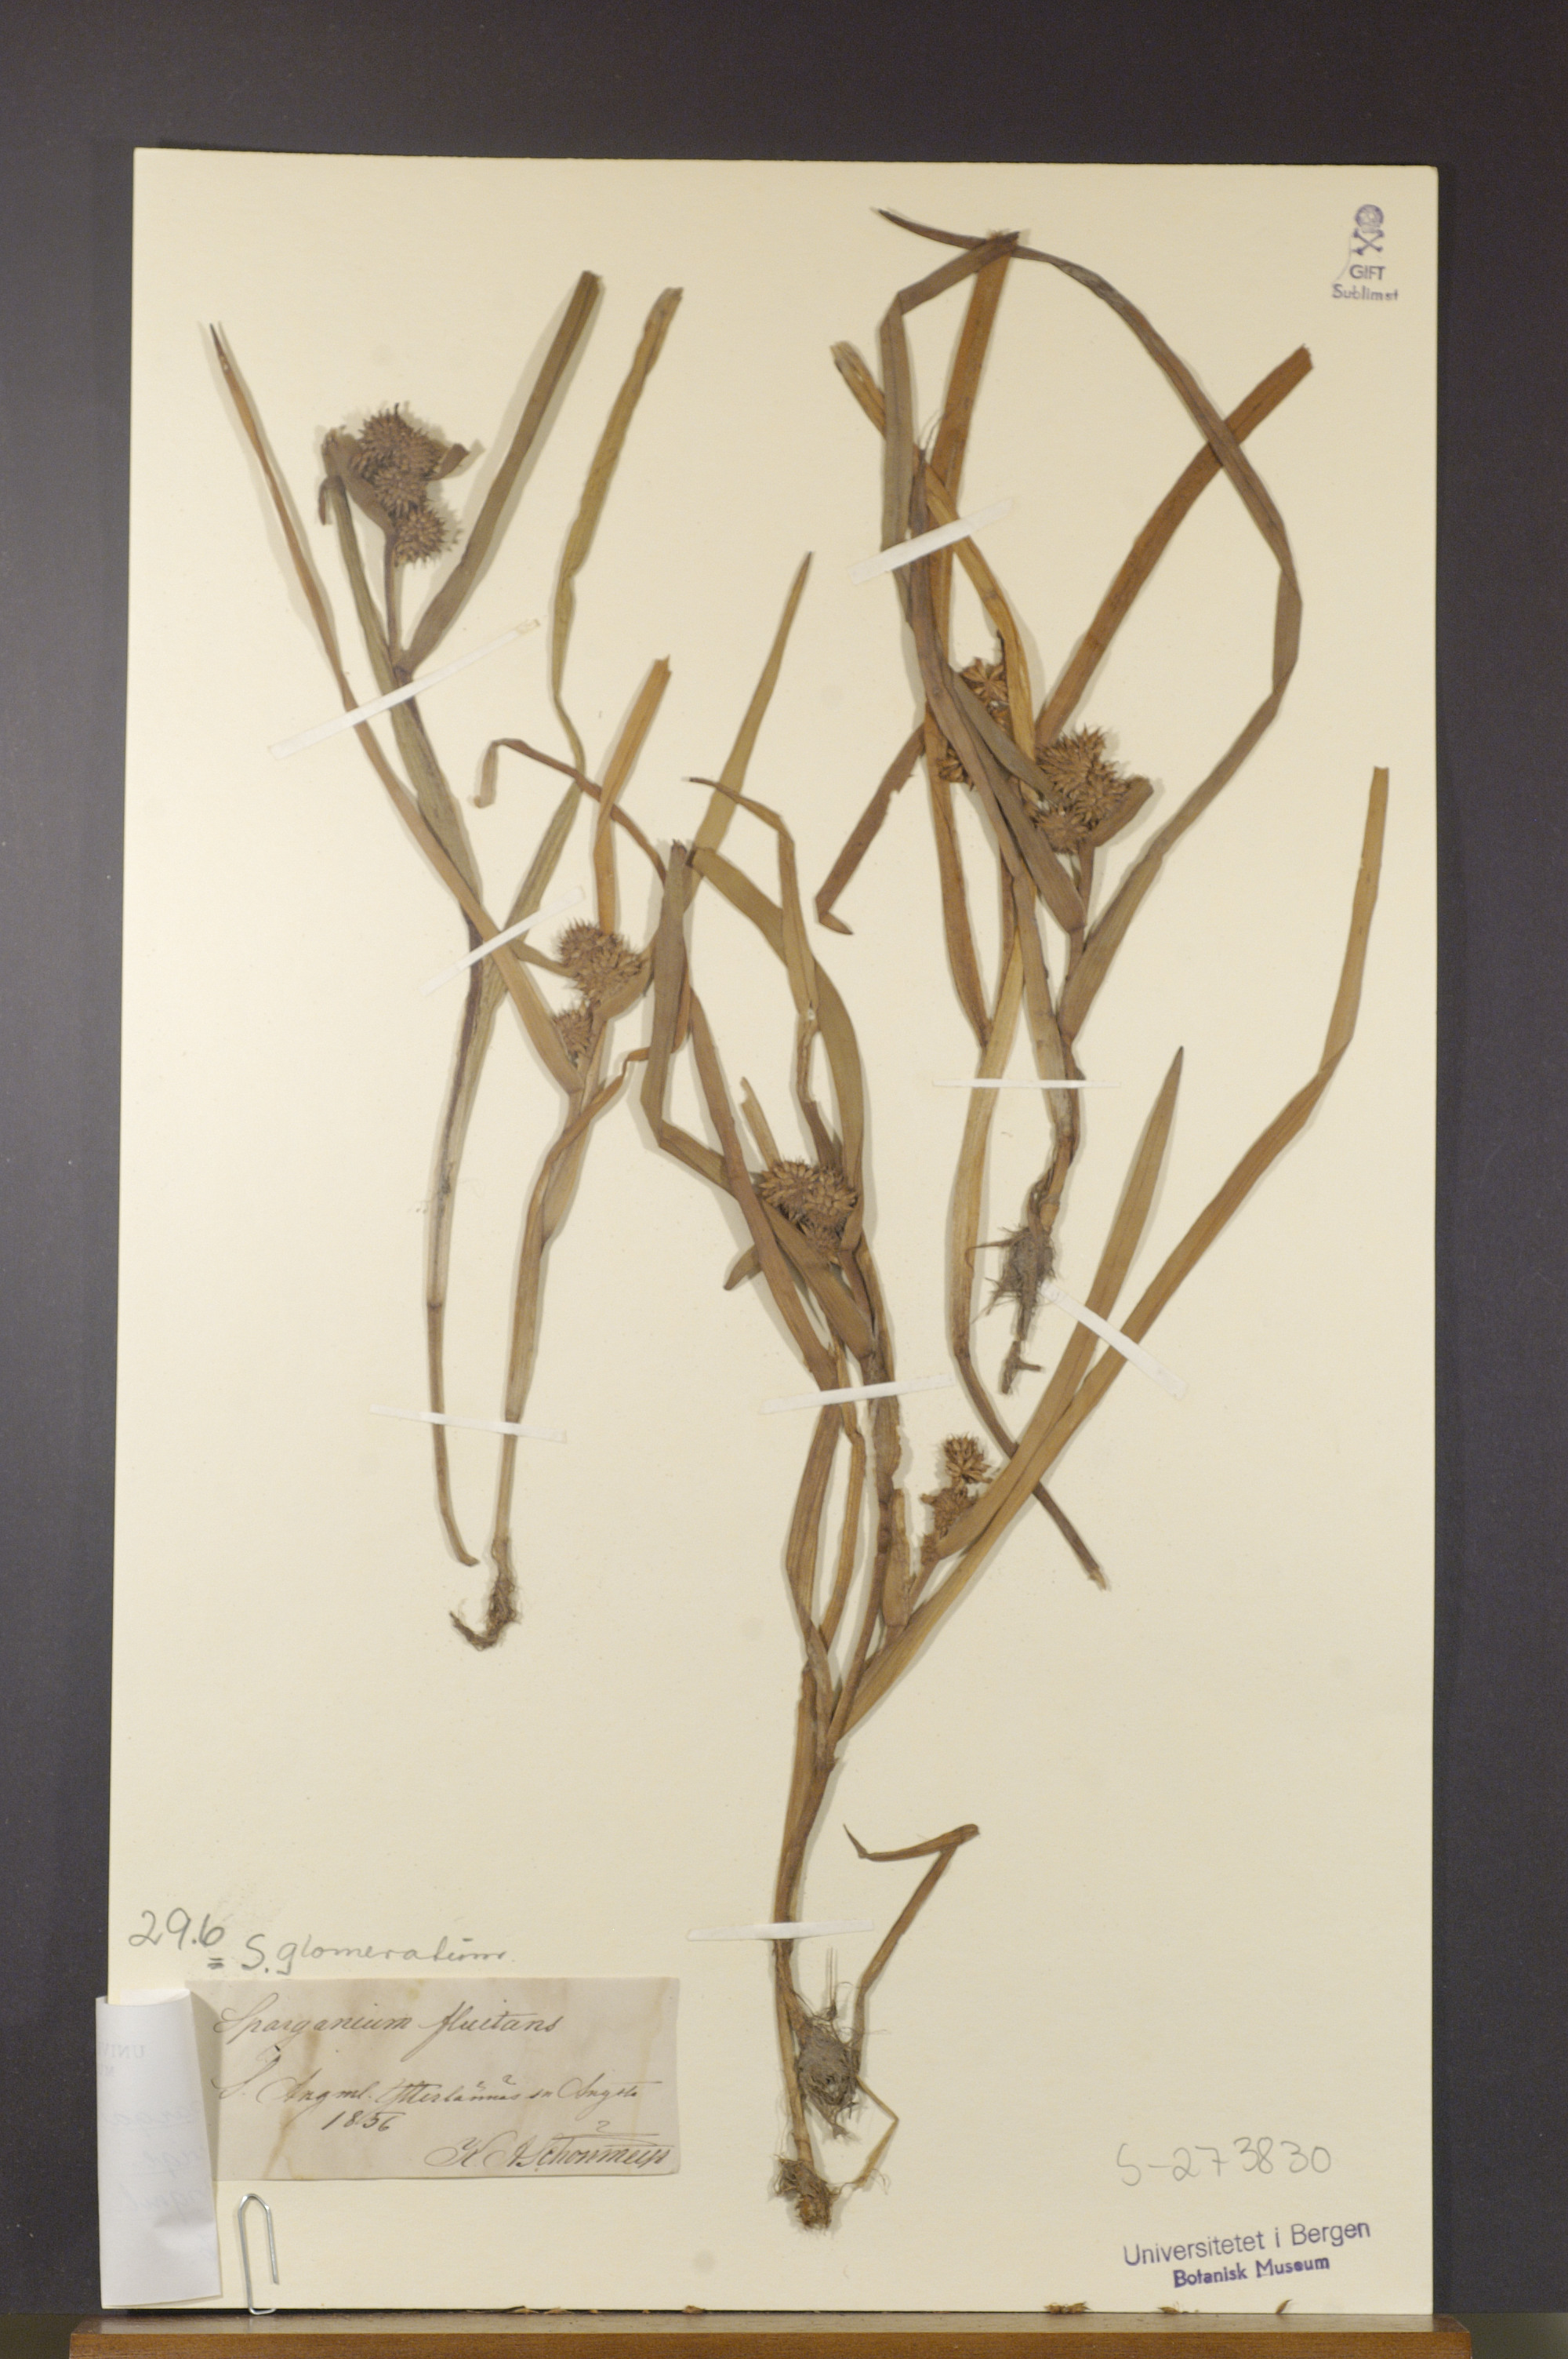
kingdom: Plantae
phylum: Tracheophyta
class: Liliopsida
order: Poales
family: Typhaceae
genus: Sparganium
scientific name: Sparganium angustifolium
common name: Floating bur-reed
